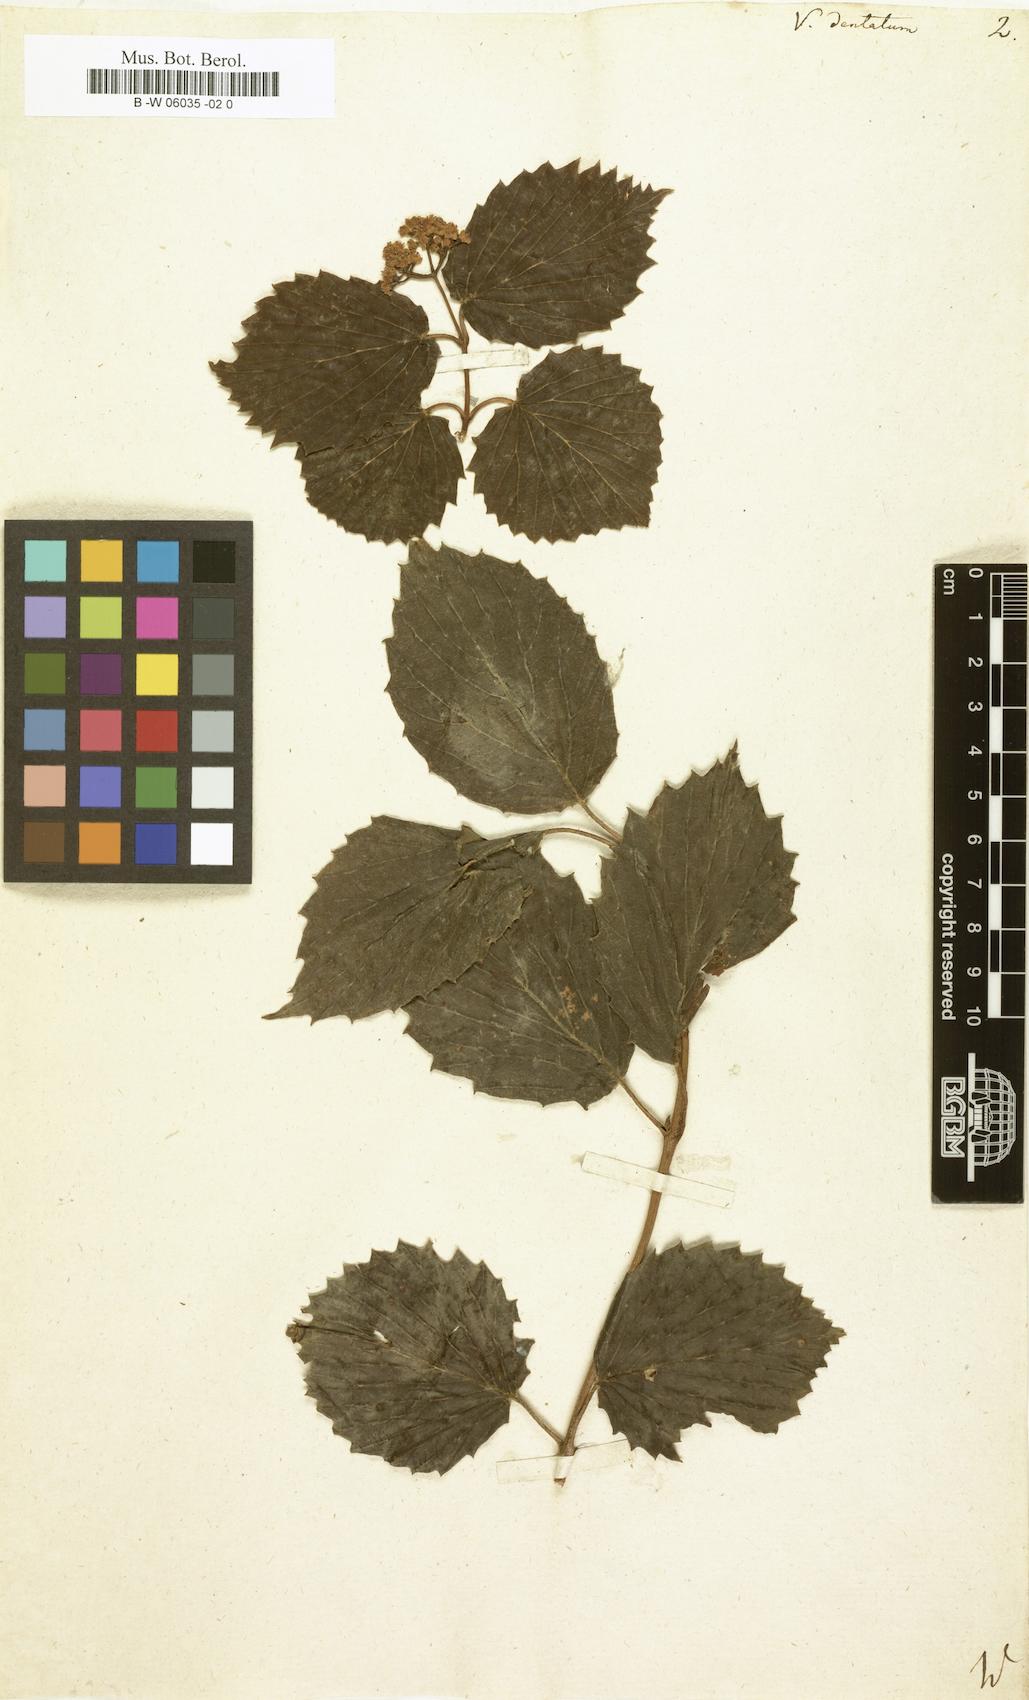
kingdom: Plantae
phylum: Tracheophyta
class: Magnoliopsida
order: Dipsacales
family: Viburnaceae
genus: Viburnum
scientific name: Viburnum dentatum
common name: Arrow-wood
